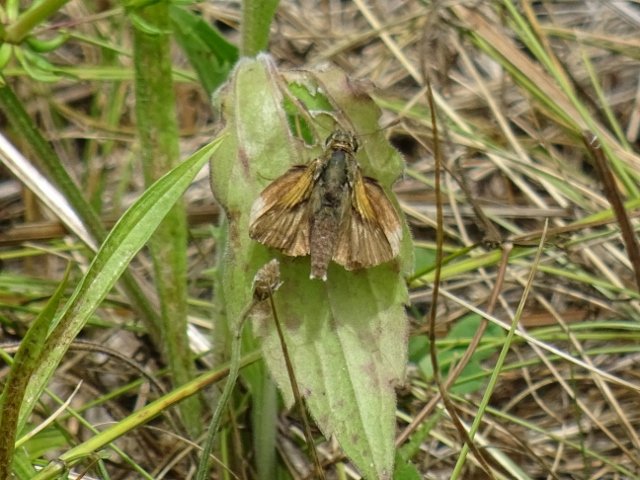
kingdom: Animalia
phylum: Arthropoda
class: Insecta
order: Lepidoptera
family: Hesperiidae
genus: Polites
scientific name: Polites themistocles
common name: Tawny-edged Skipper
